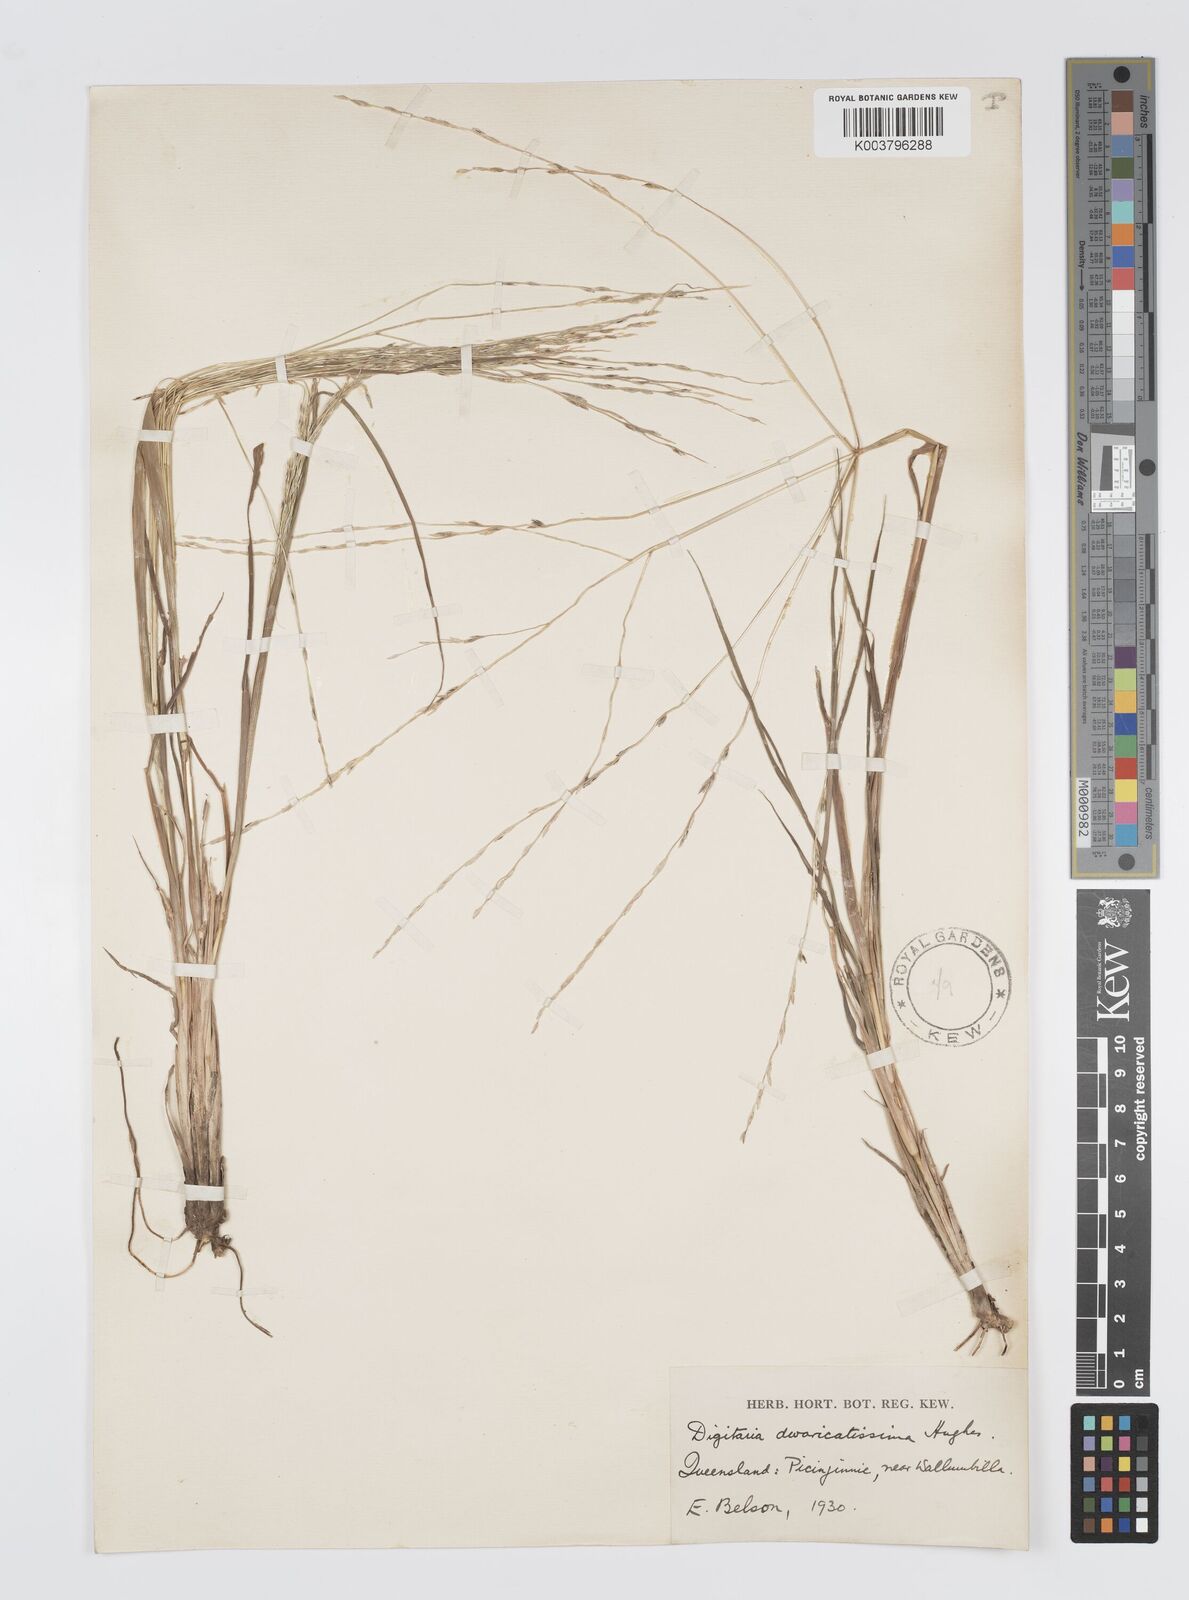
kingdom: Plantae
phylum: Tracheophyta
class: Liliopsida
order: Poales
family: Poaceae
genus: Digitaria
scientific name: Digitaria divaricatissima
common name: Crabgrass
